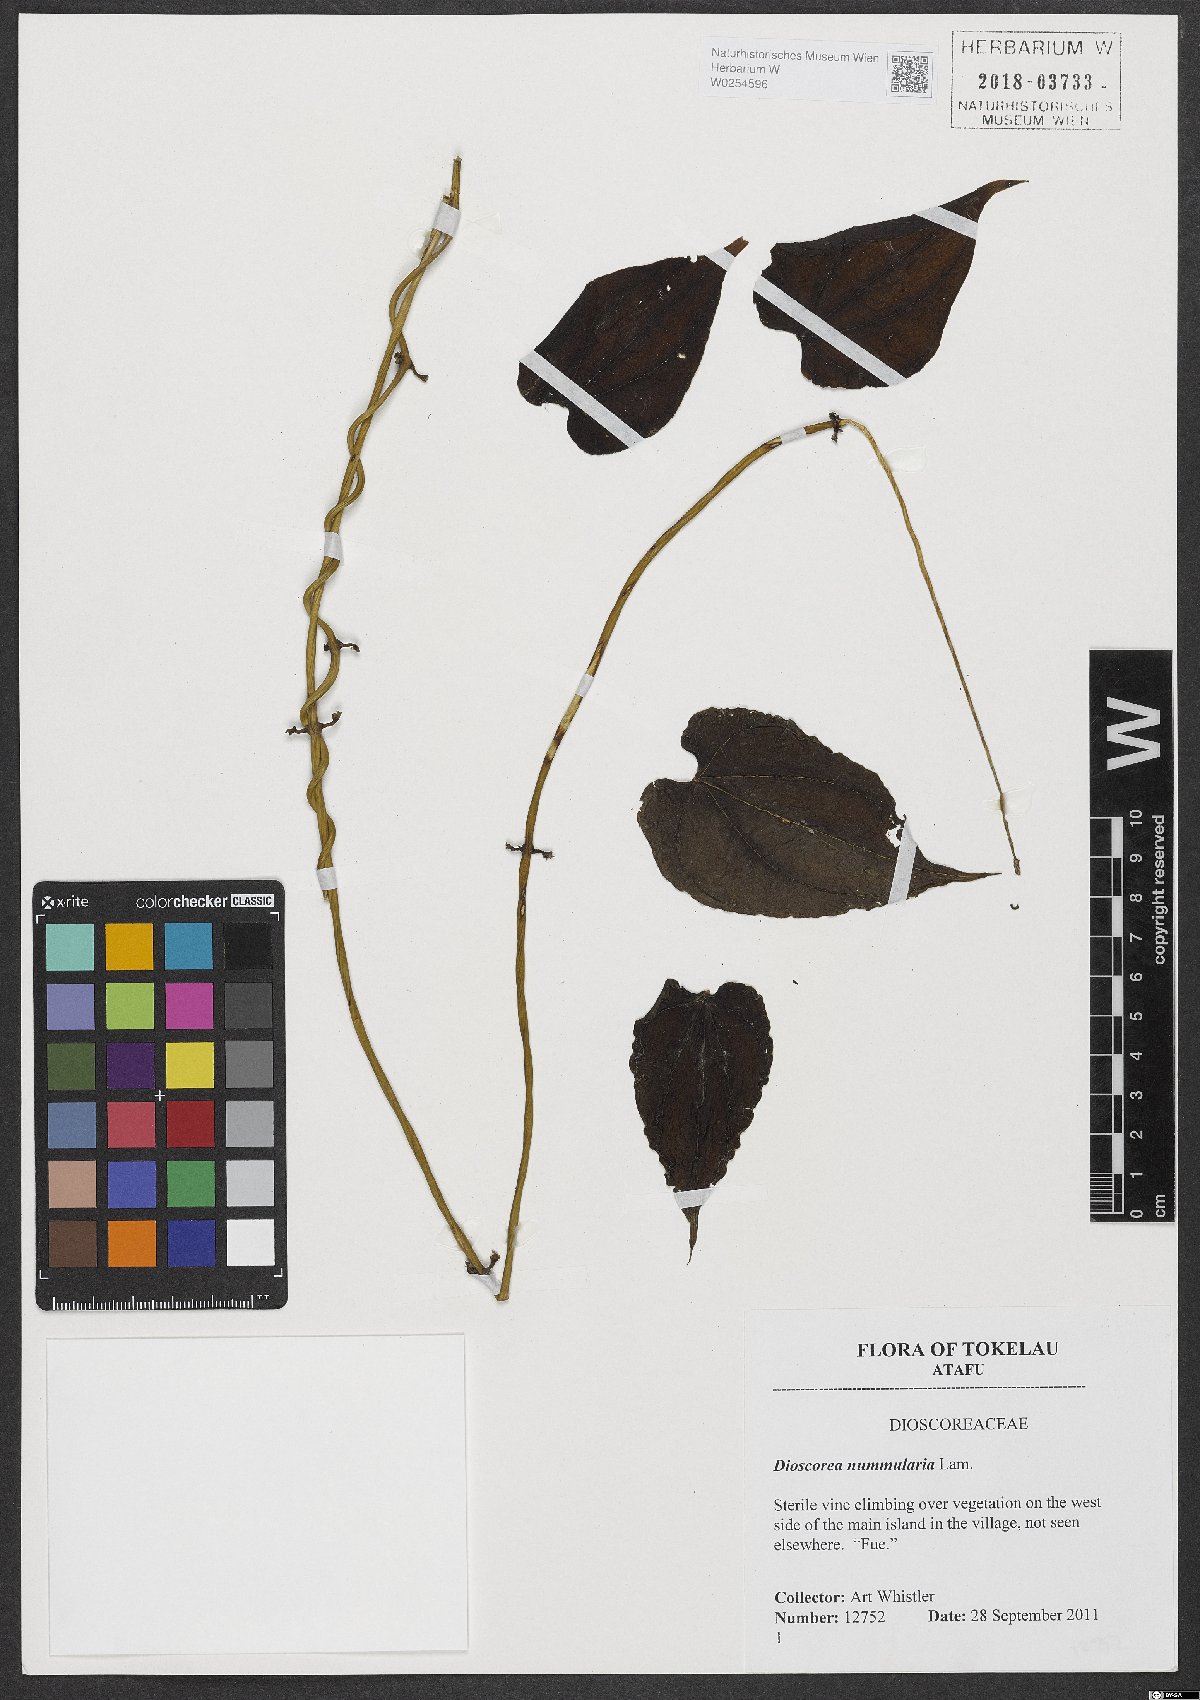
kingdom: Plantae
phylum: Tracheophyta
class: Liliopsida
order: Dioscoreales
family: Dioscoreaceae
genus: Dioscorea
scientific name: Dioscorea nummularia
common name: Pacific yam
